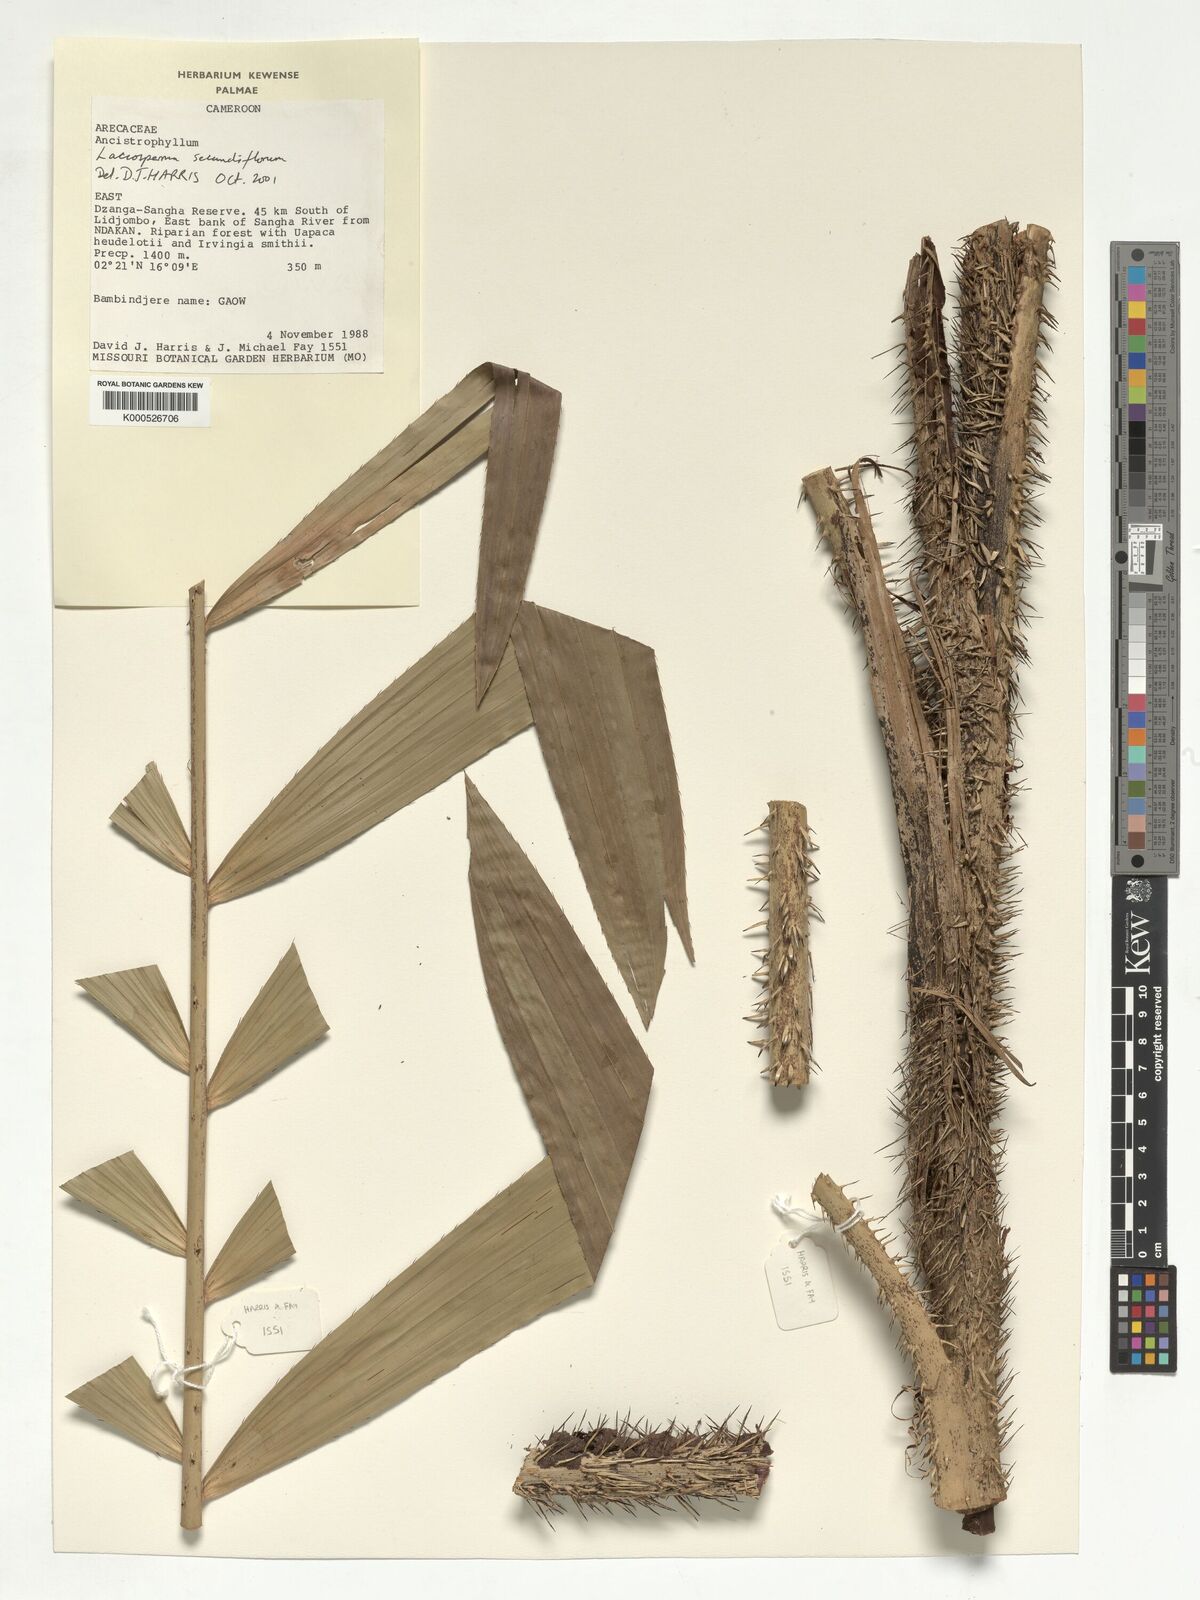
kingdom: Plantae
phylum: Tracheophyta
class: Liliopsida
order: Arecales
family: Arecaceae
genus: Laccosperma
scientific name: Laccosperma secundiflorum
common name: Rattan
